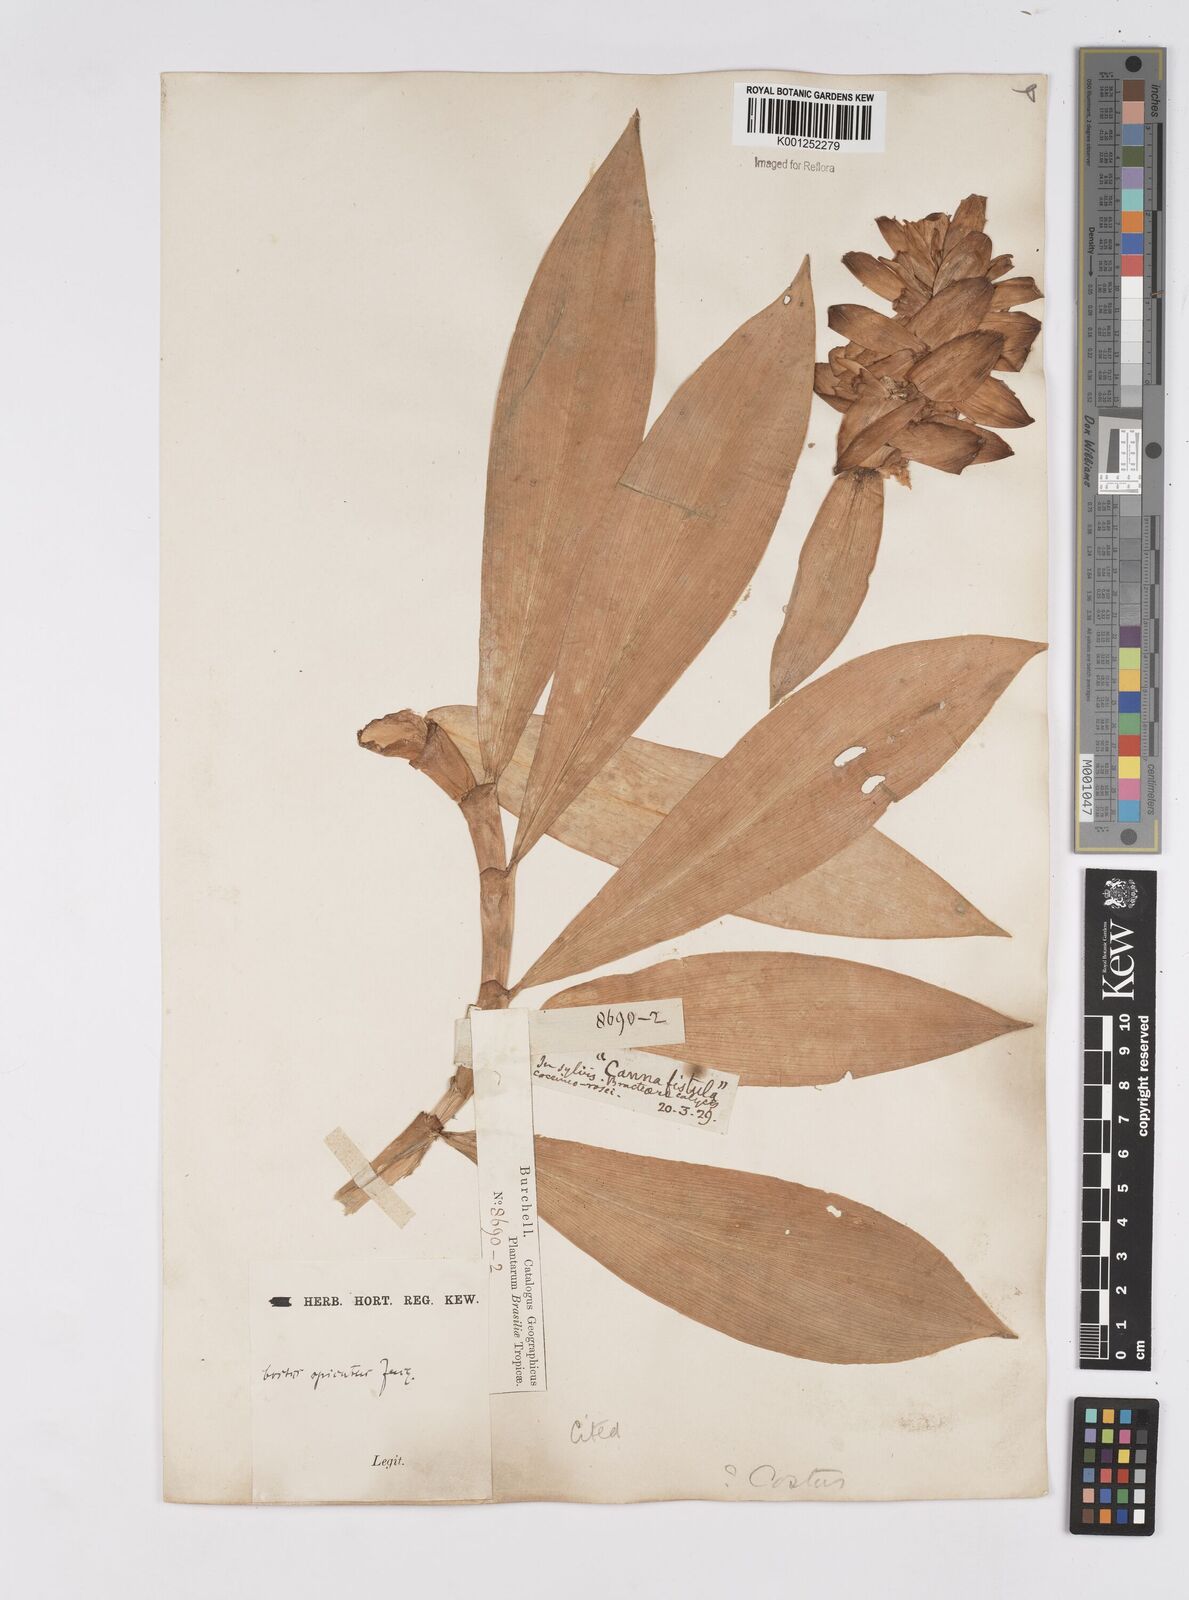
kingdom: Plantae
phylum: Tracheophyta
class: Liliopsida
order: Zingiberales
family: Costaceae
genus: Costus
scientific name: Costus spiralis
